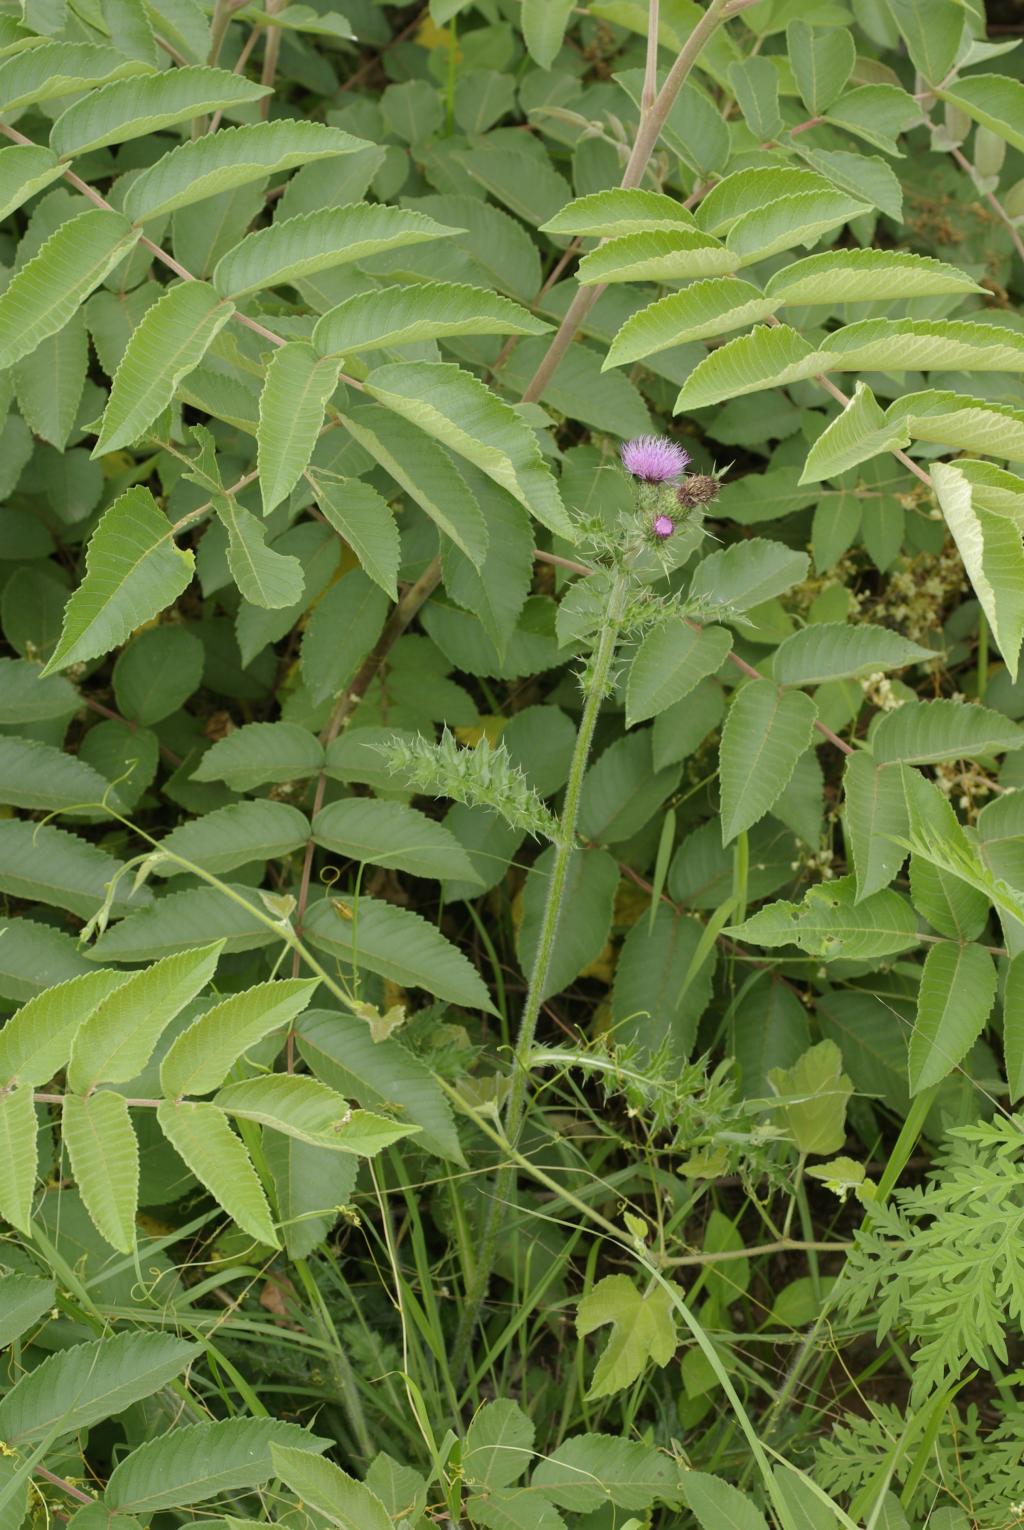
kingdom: Plantae
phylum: Tracheophyta
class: Magnoliopsida
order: Asterales
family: Asteraceae
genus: Cirsium
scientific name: Cirsium japonicum
